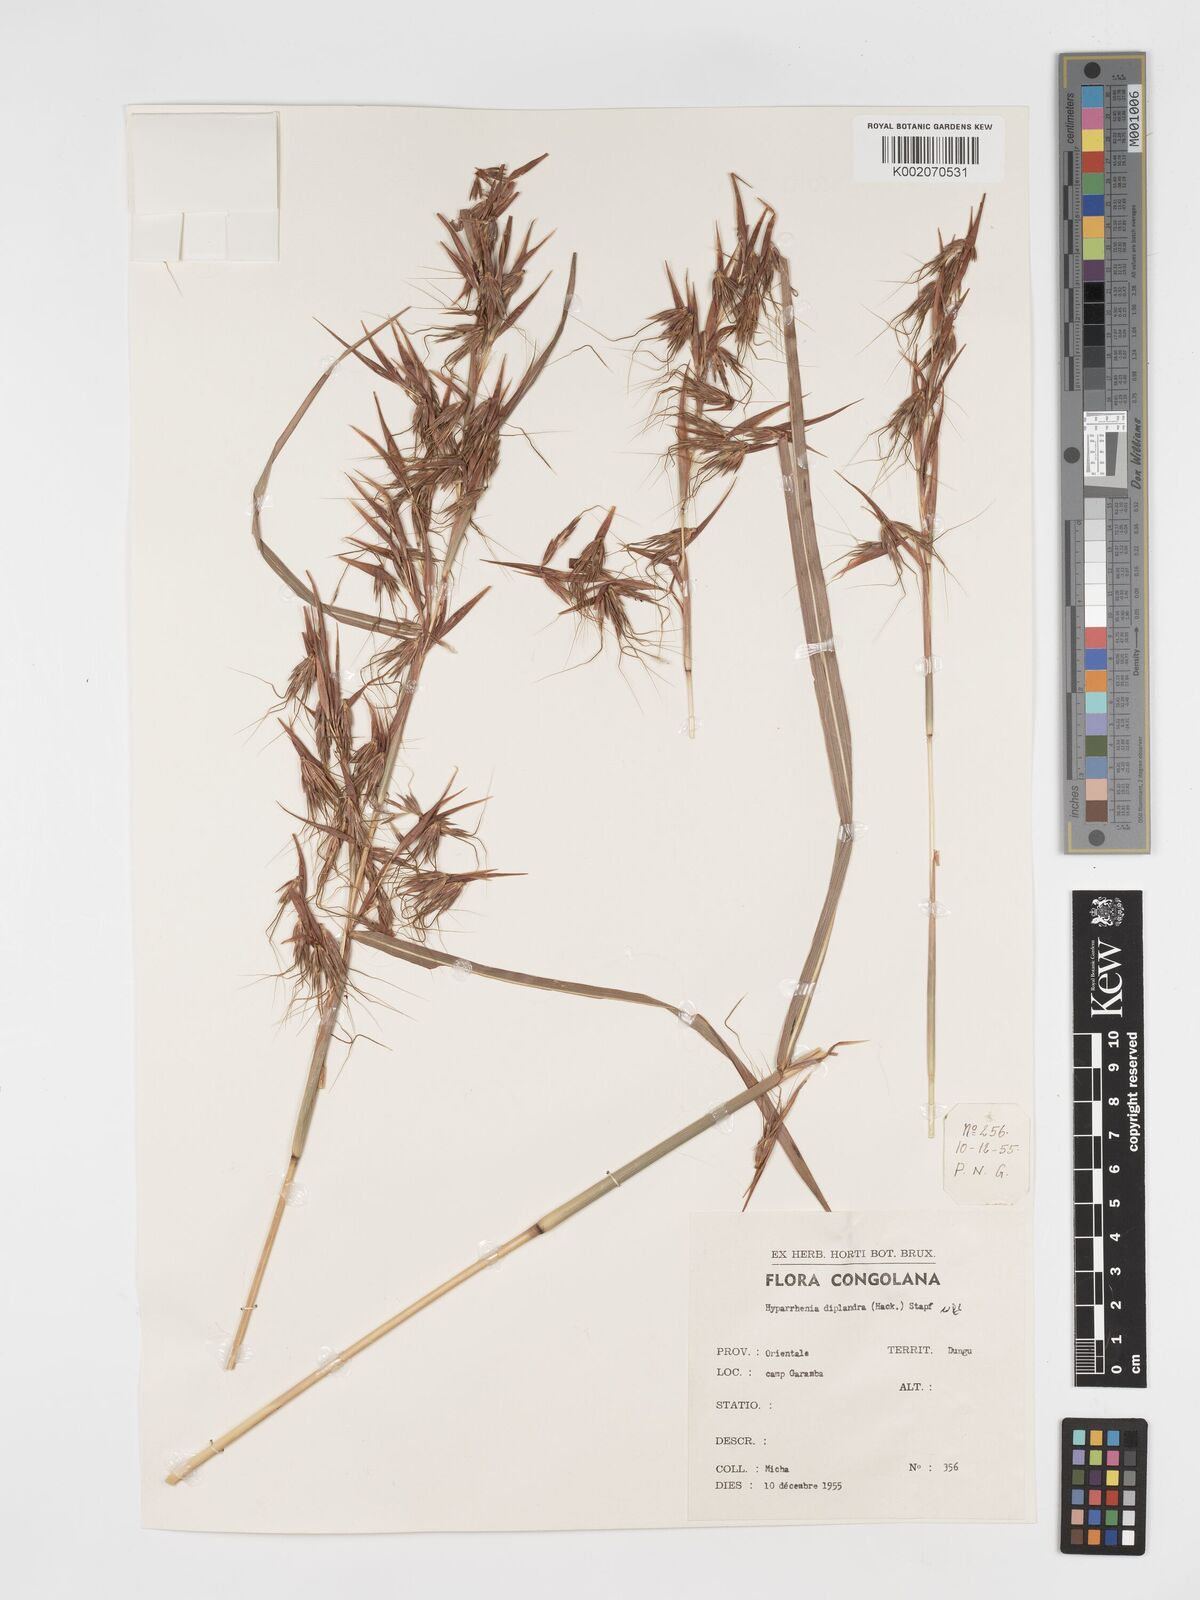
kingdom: Plantae
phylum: Tracheophyta
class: Liliopsida
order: Poales
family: Poaceae
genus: Hyparrhenia
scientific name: Hyparrhenia diplandra
